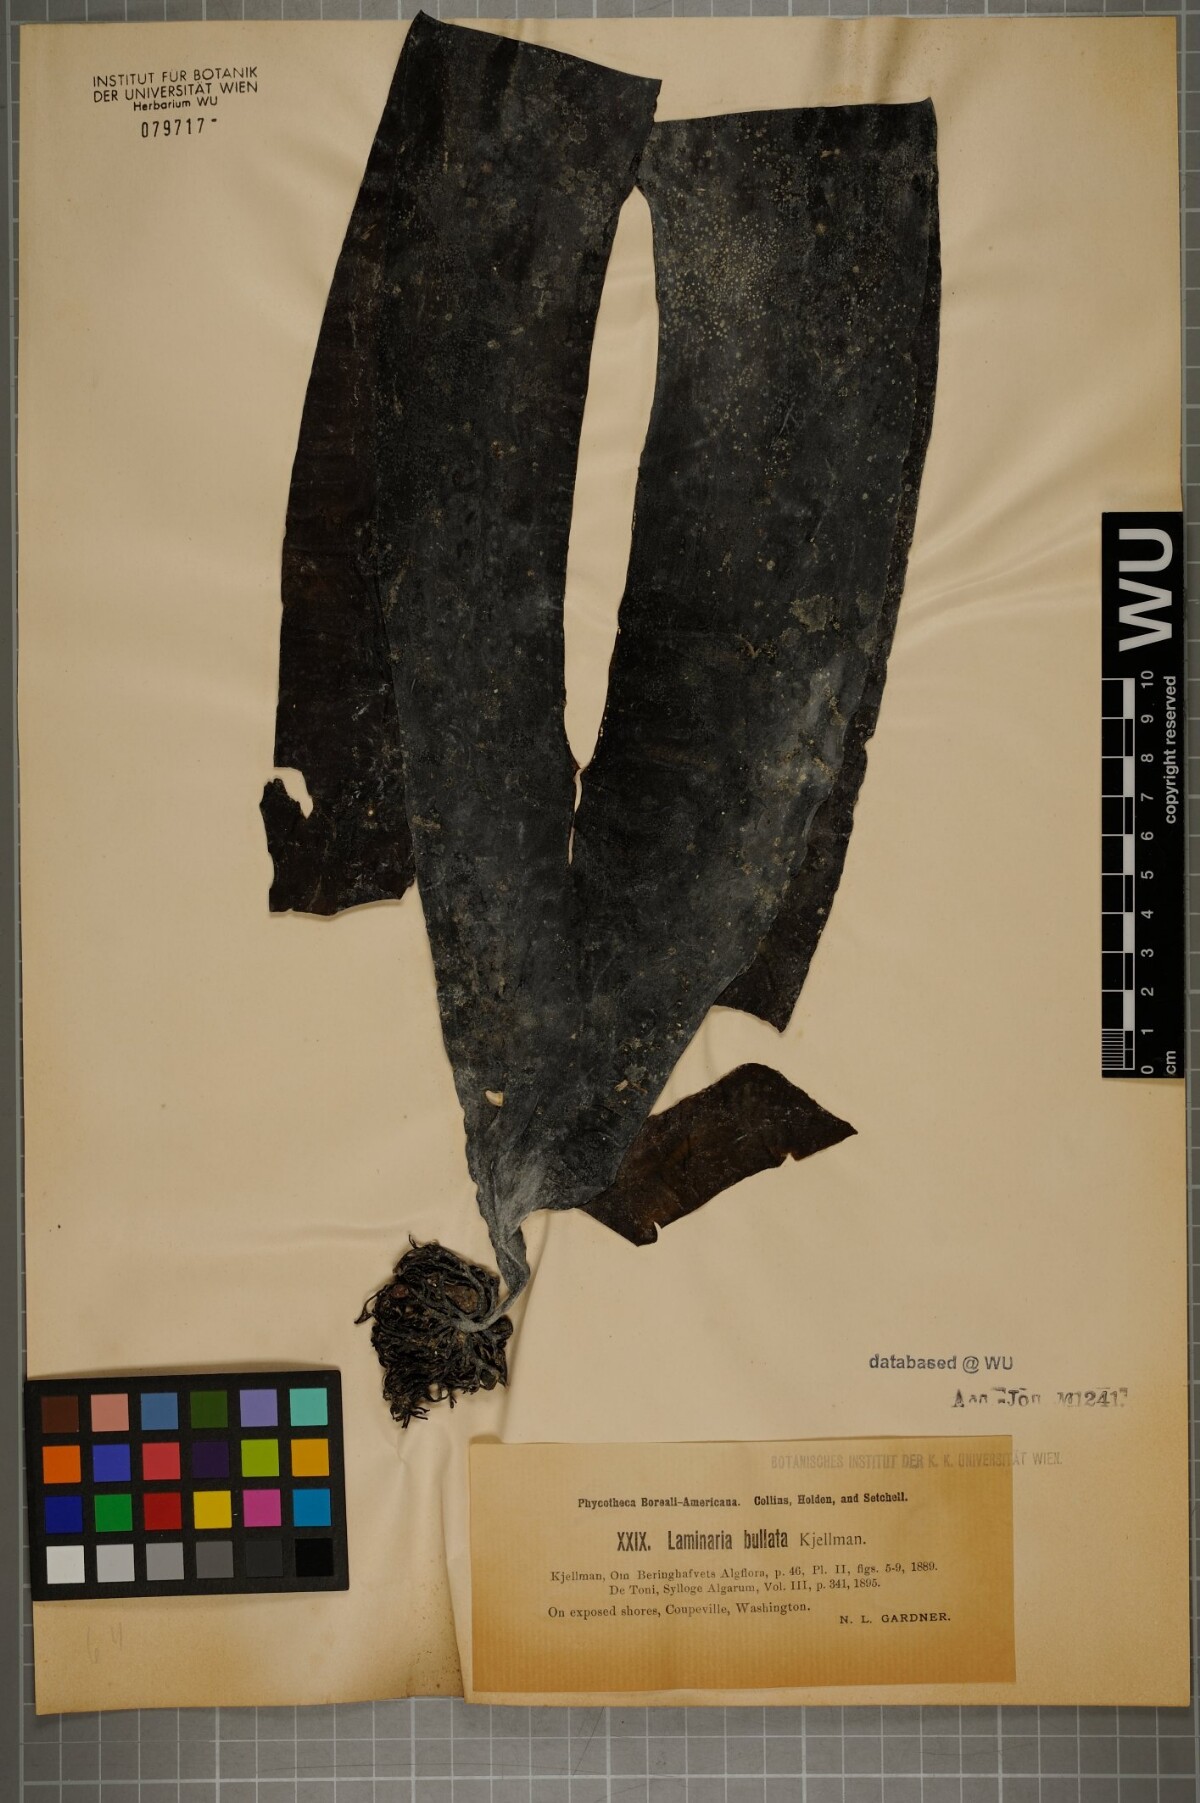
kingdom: Chromista
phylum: Ochrophyta
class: Phaeophyceae
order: Laminariales
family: Laminariaceae
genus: Laminaria
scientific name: Laminaria
